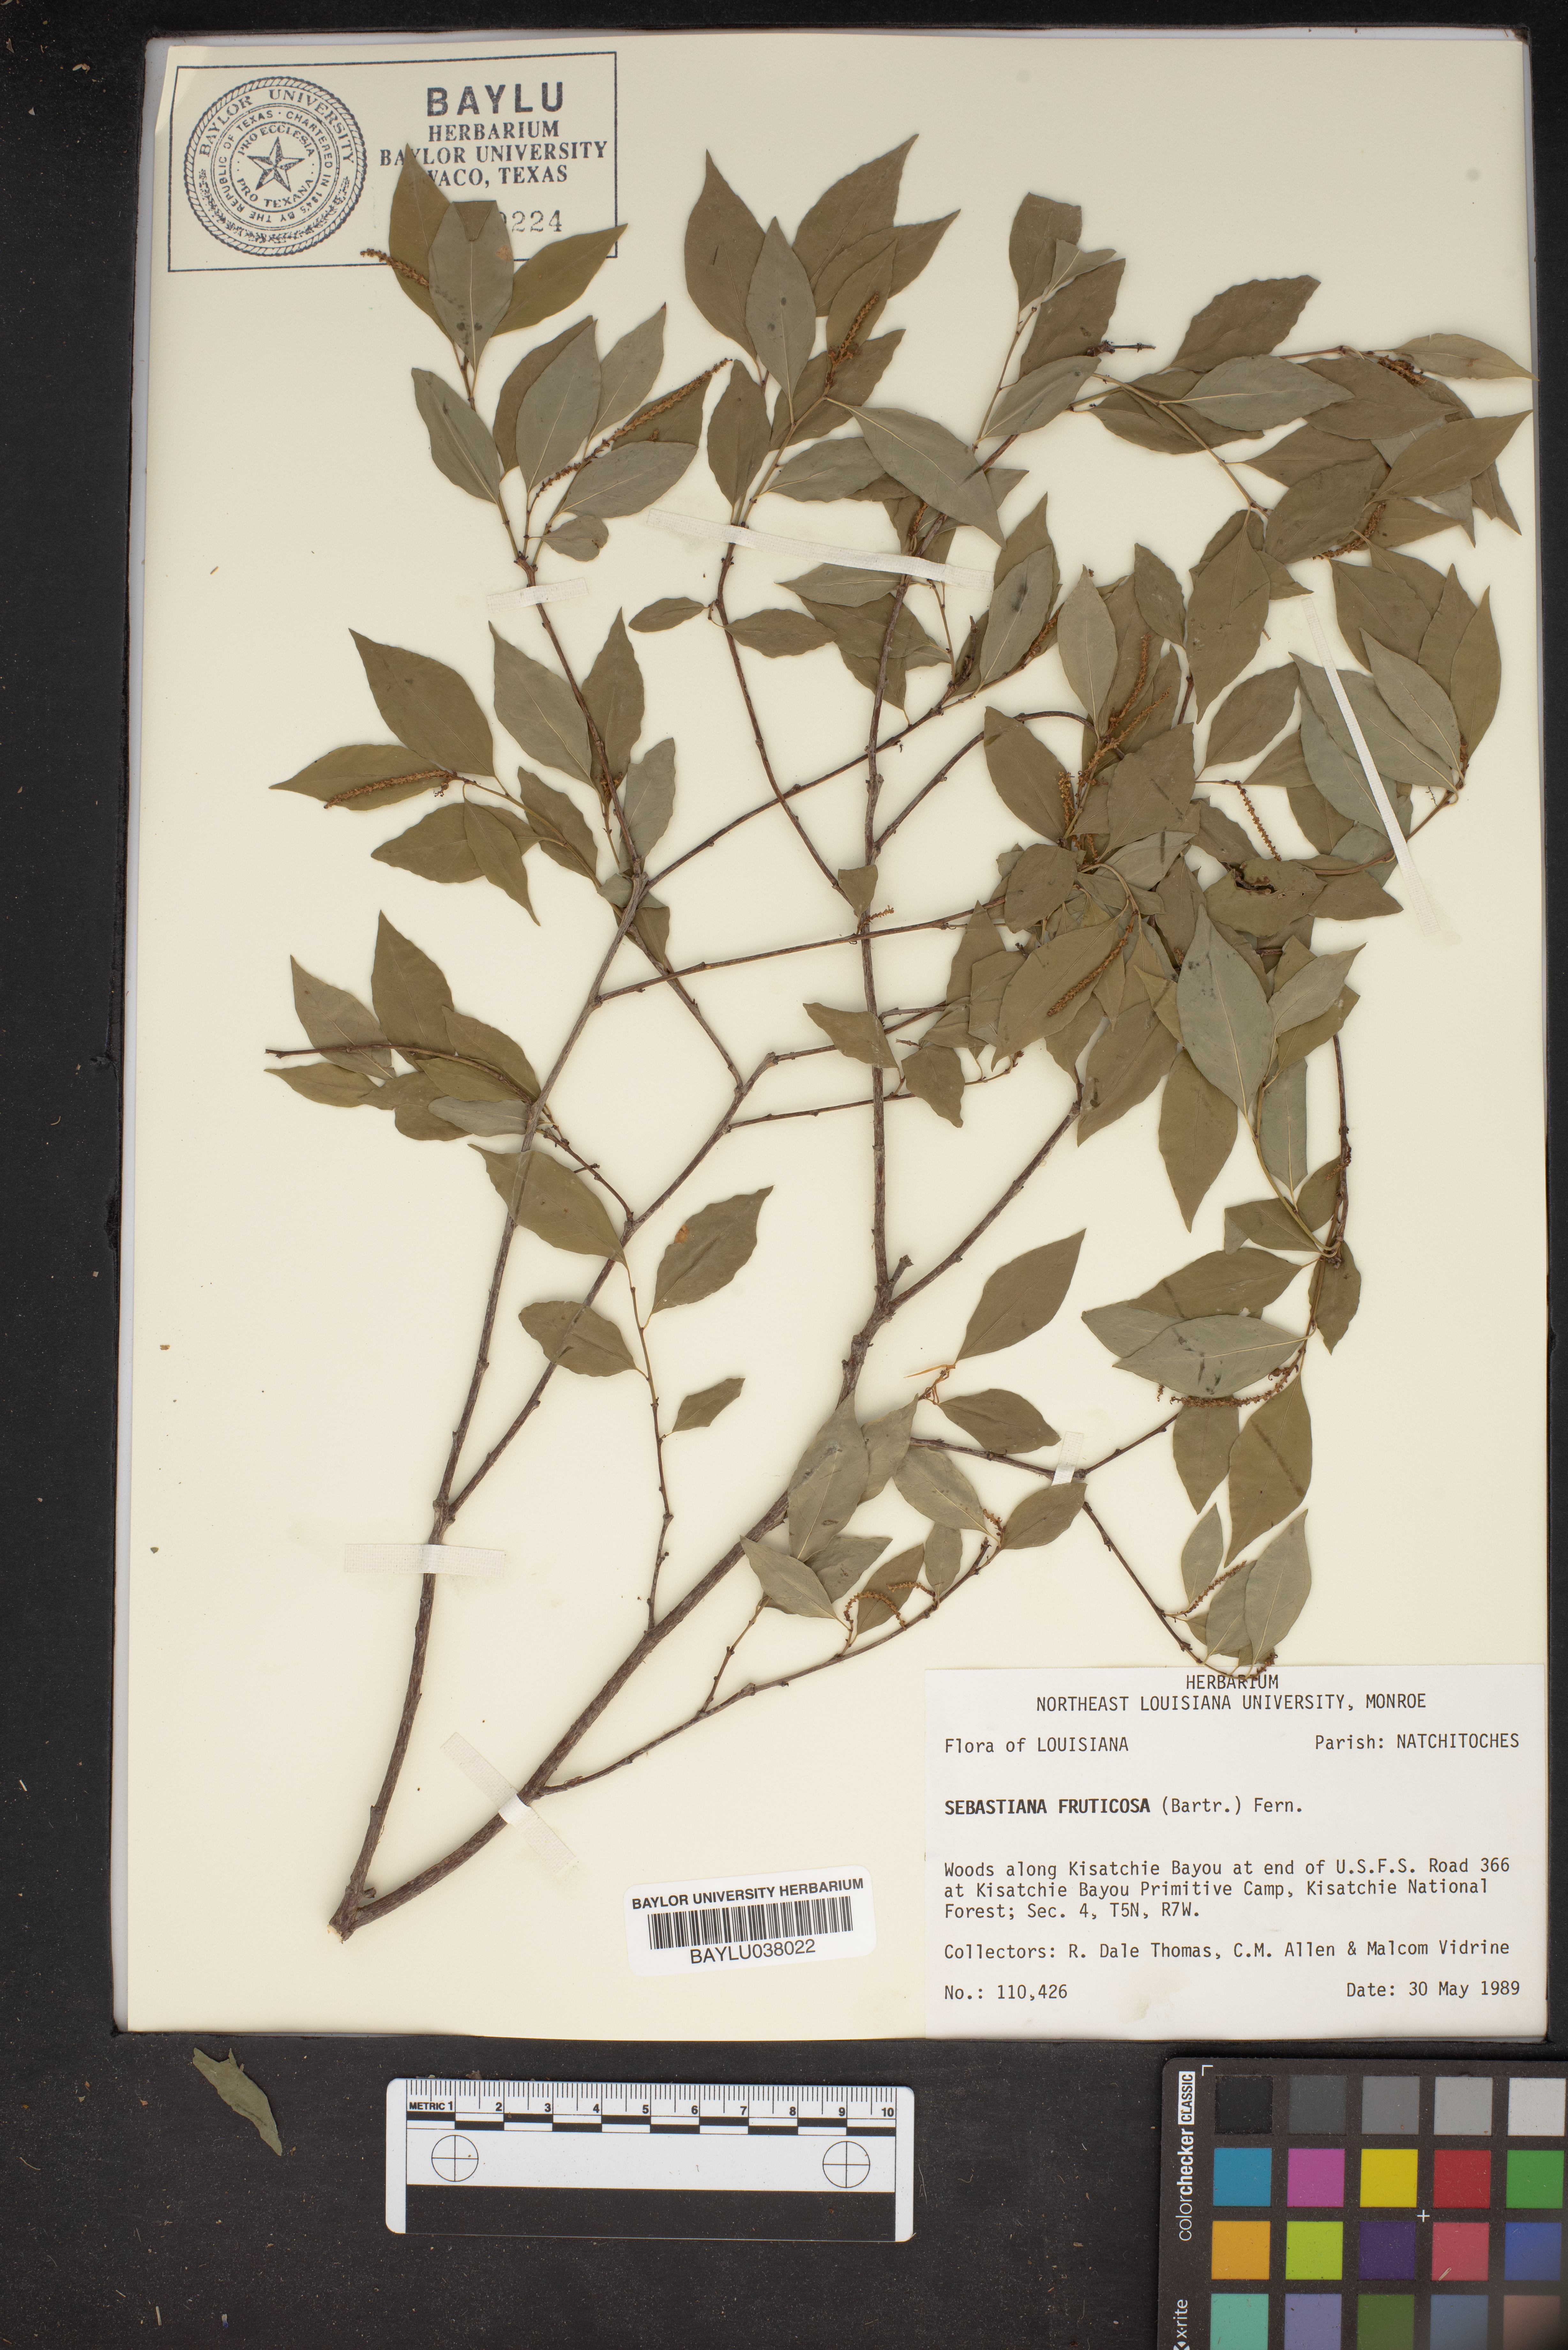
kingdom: Plantae
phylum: Tracheophyta
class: Magnoliopsida
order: Malpighiales
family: Euphorbiaceae
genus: Ditrysinia
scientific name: Ditrysinia fruticosa
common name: Gulf sebastian-bush
